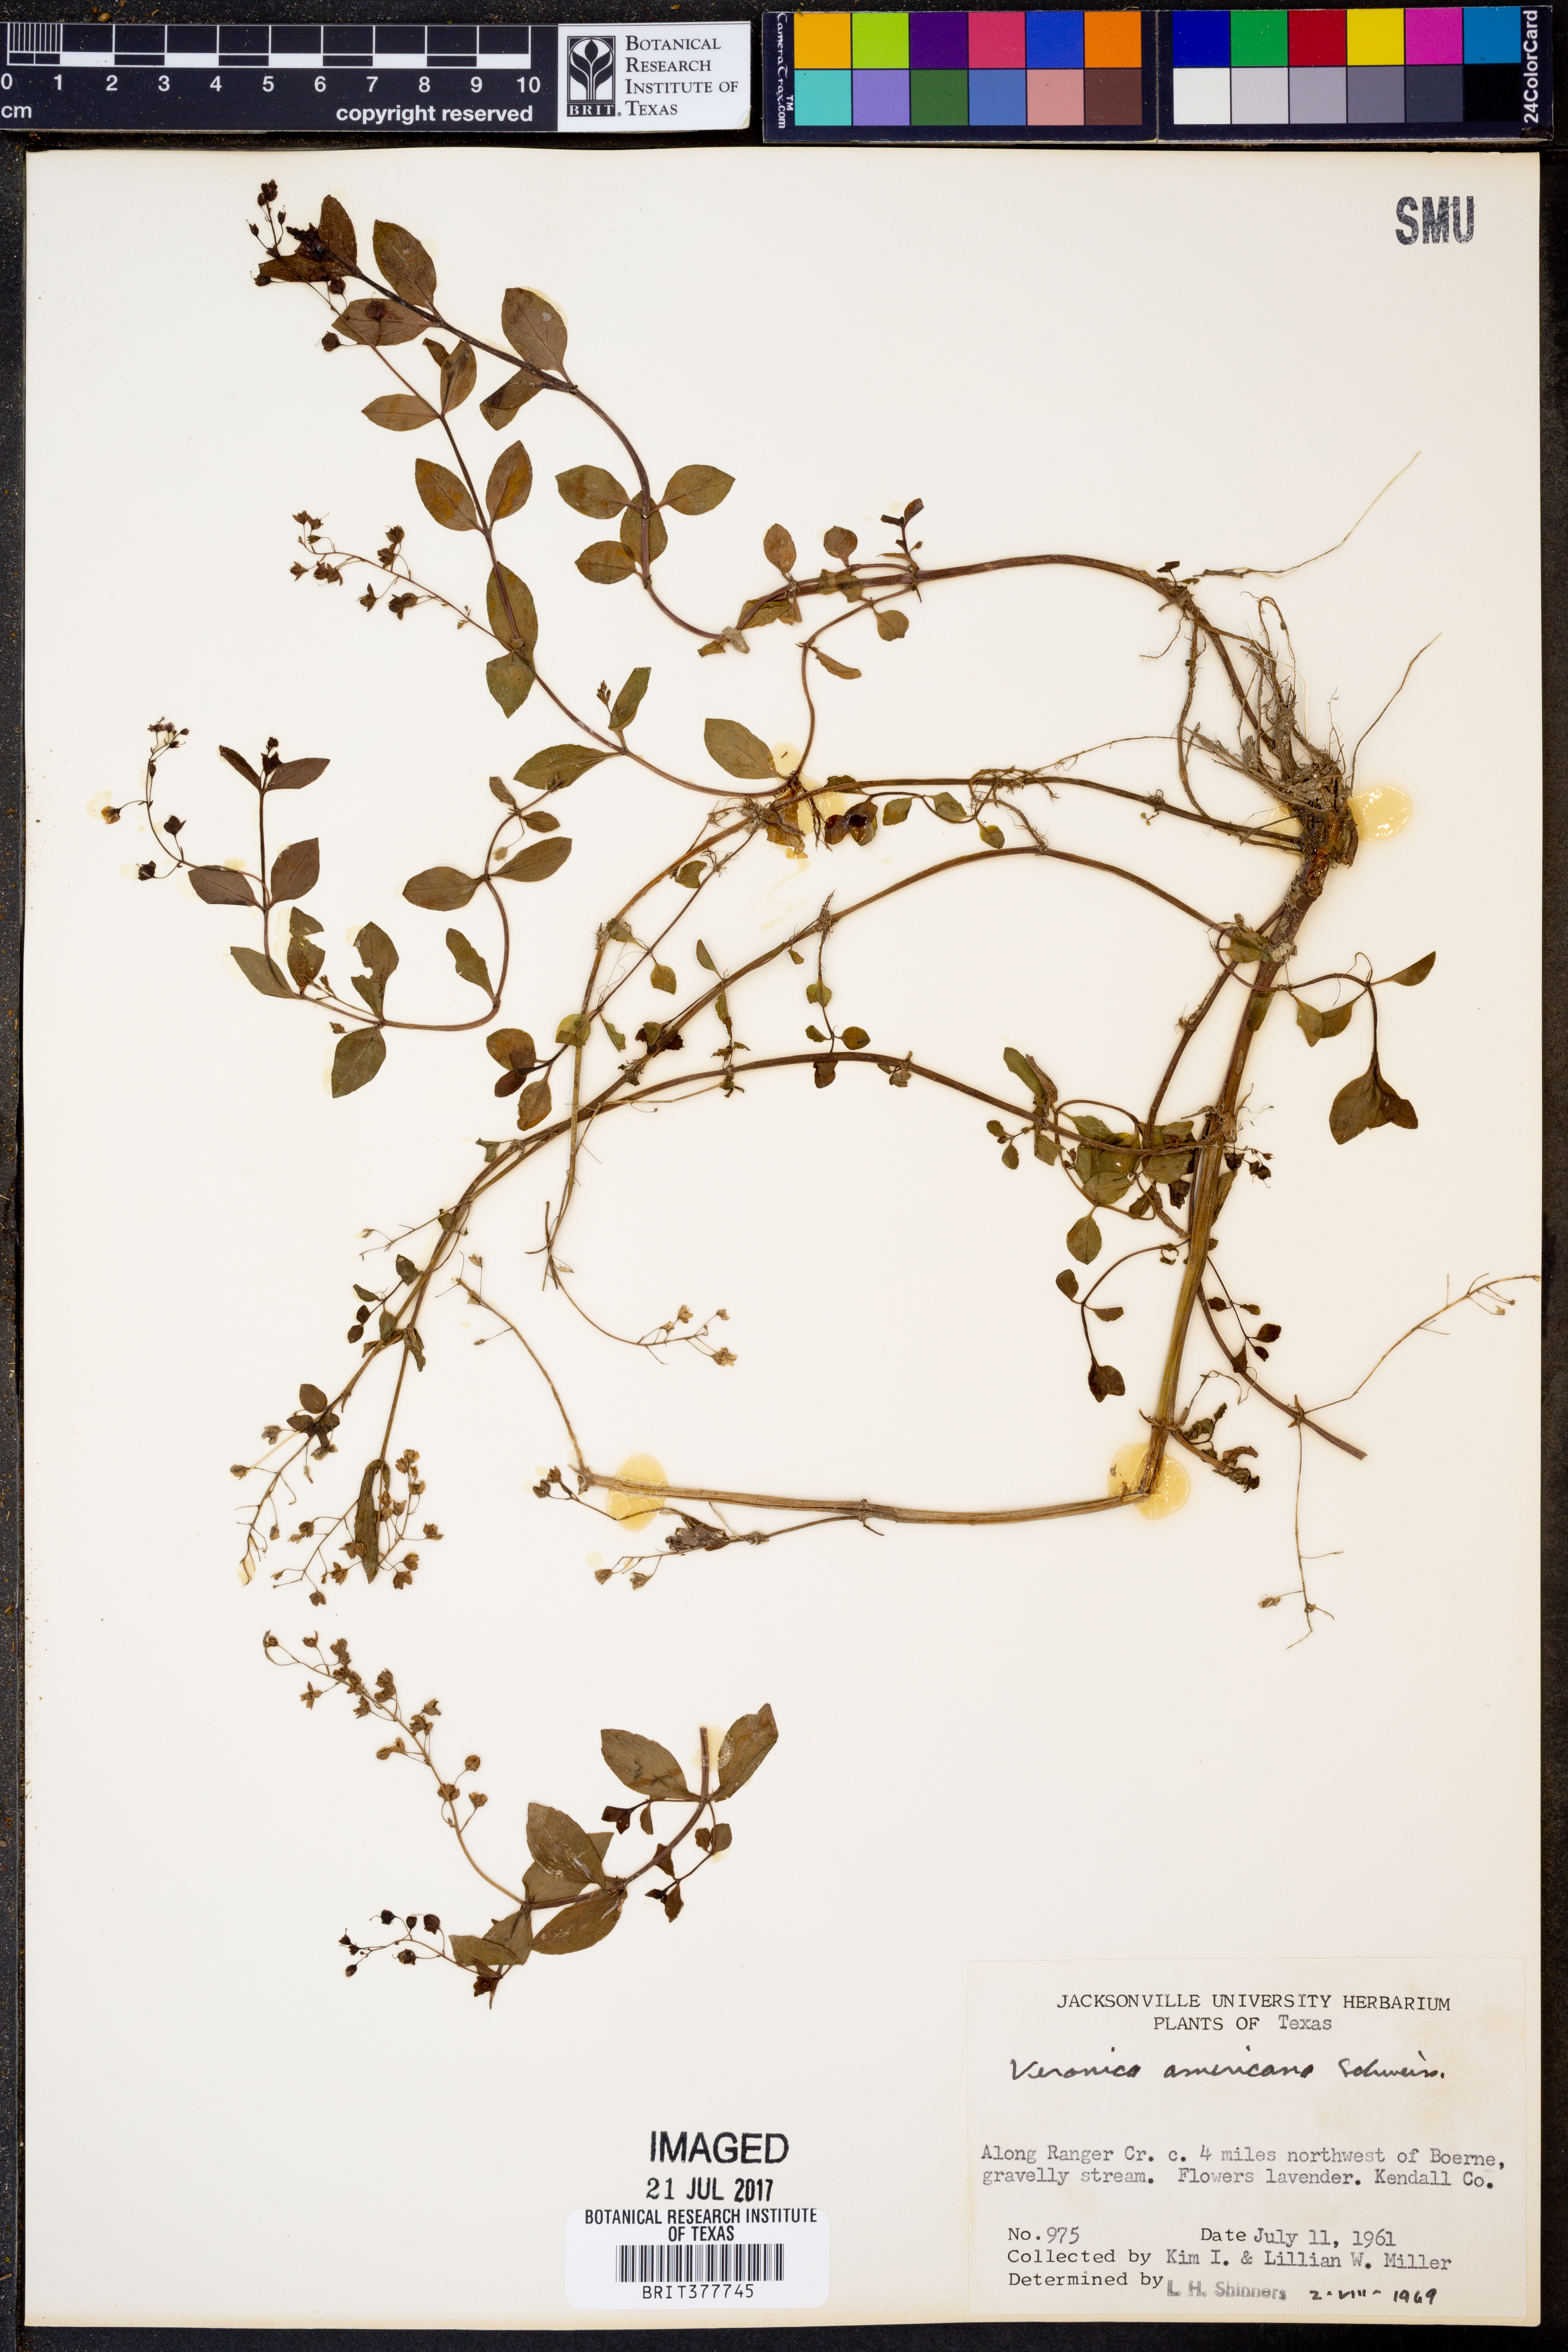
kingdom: Plantae
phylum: Tracheophyta
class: Magnoliopsida
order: Lamiales
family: Plantaginaceae
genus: Veronica
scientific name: Veronica americana
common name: American brooklime
